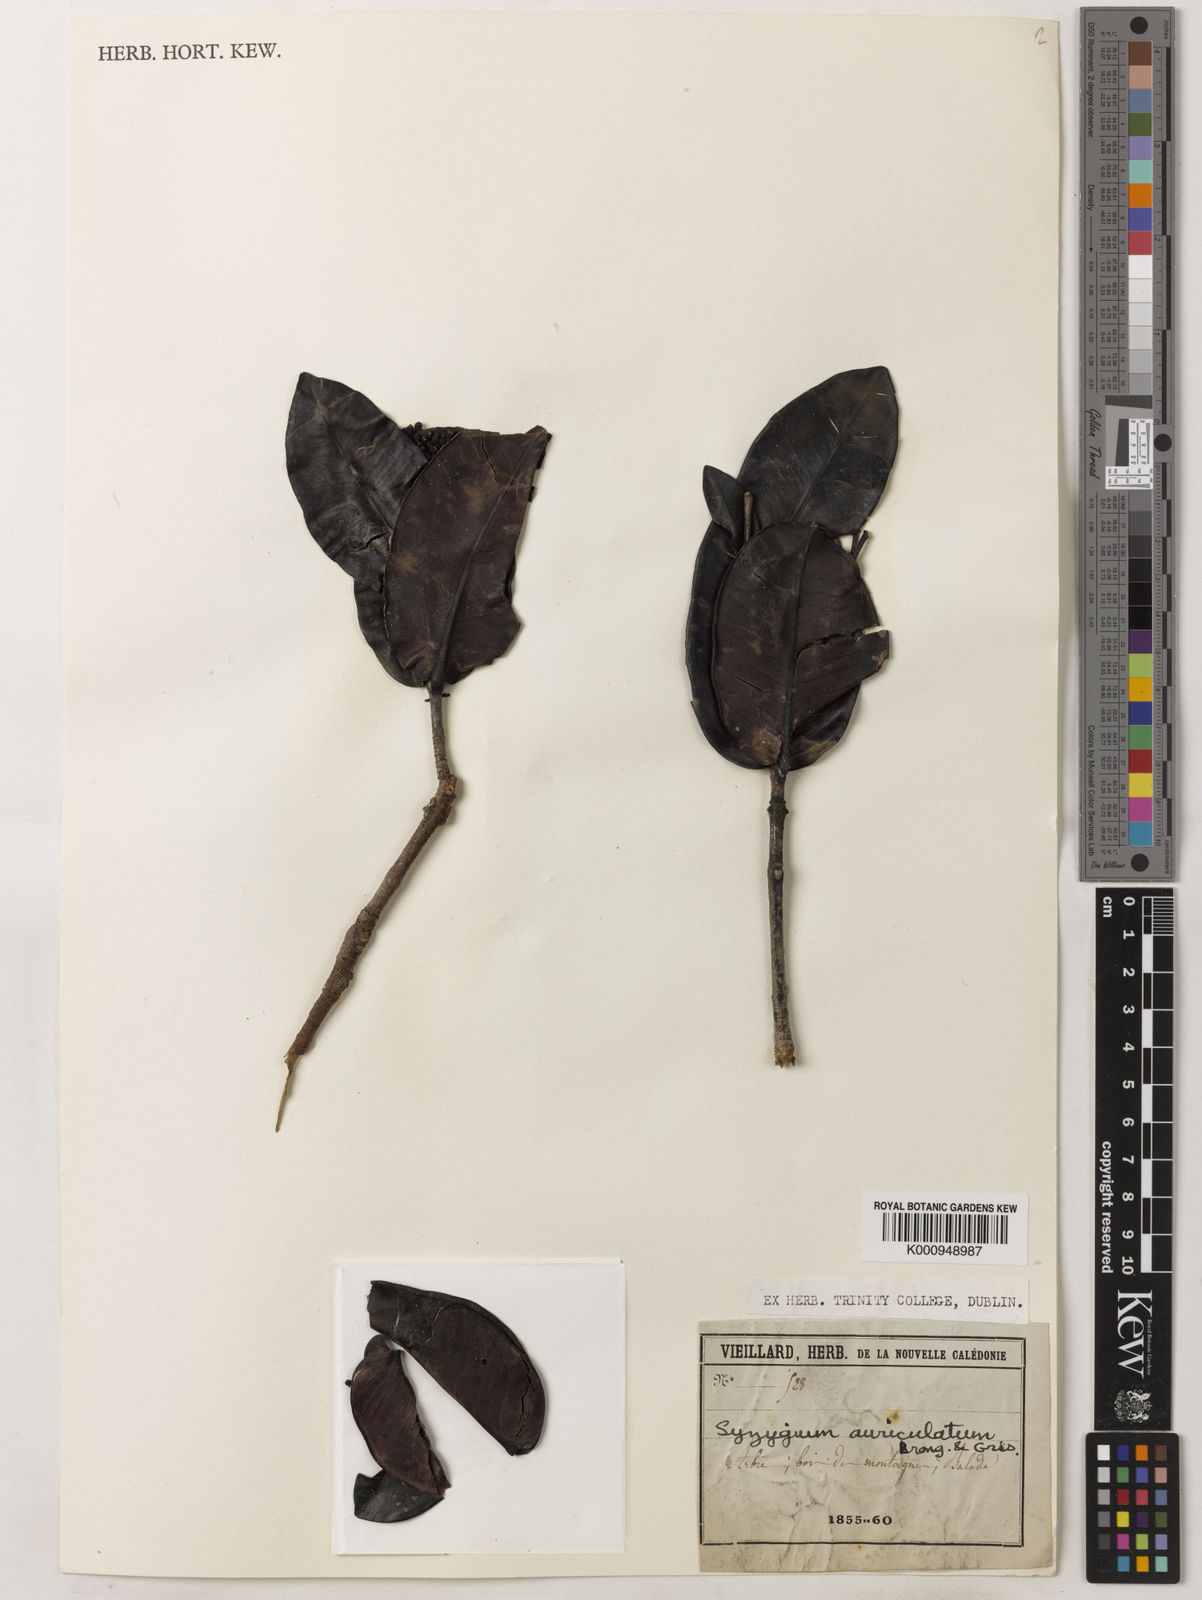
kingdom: Plantae
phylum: Tracheophyta
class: Magnoliopsida
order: Myrtales
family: Myrtaceae
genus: Syzygium
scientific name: Syzygium auriculatum
